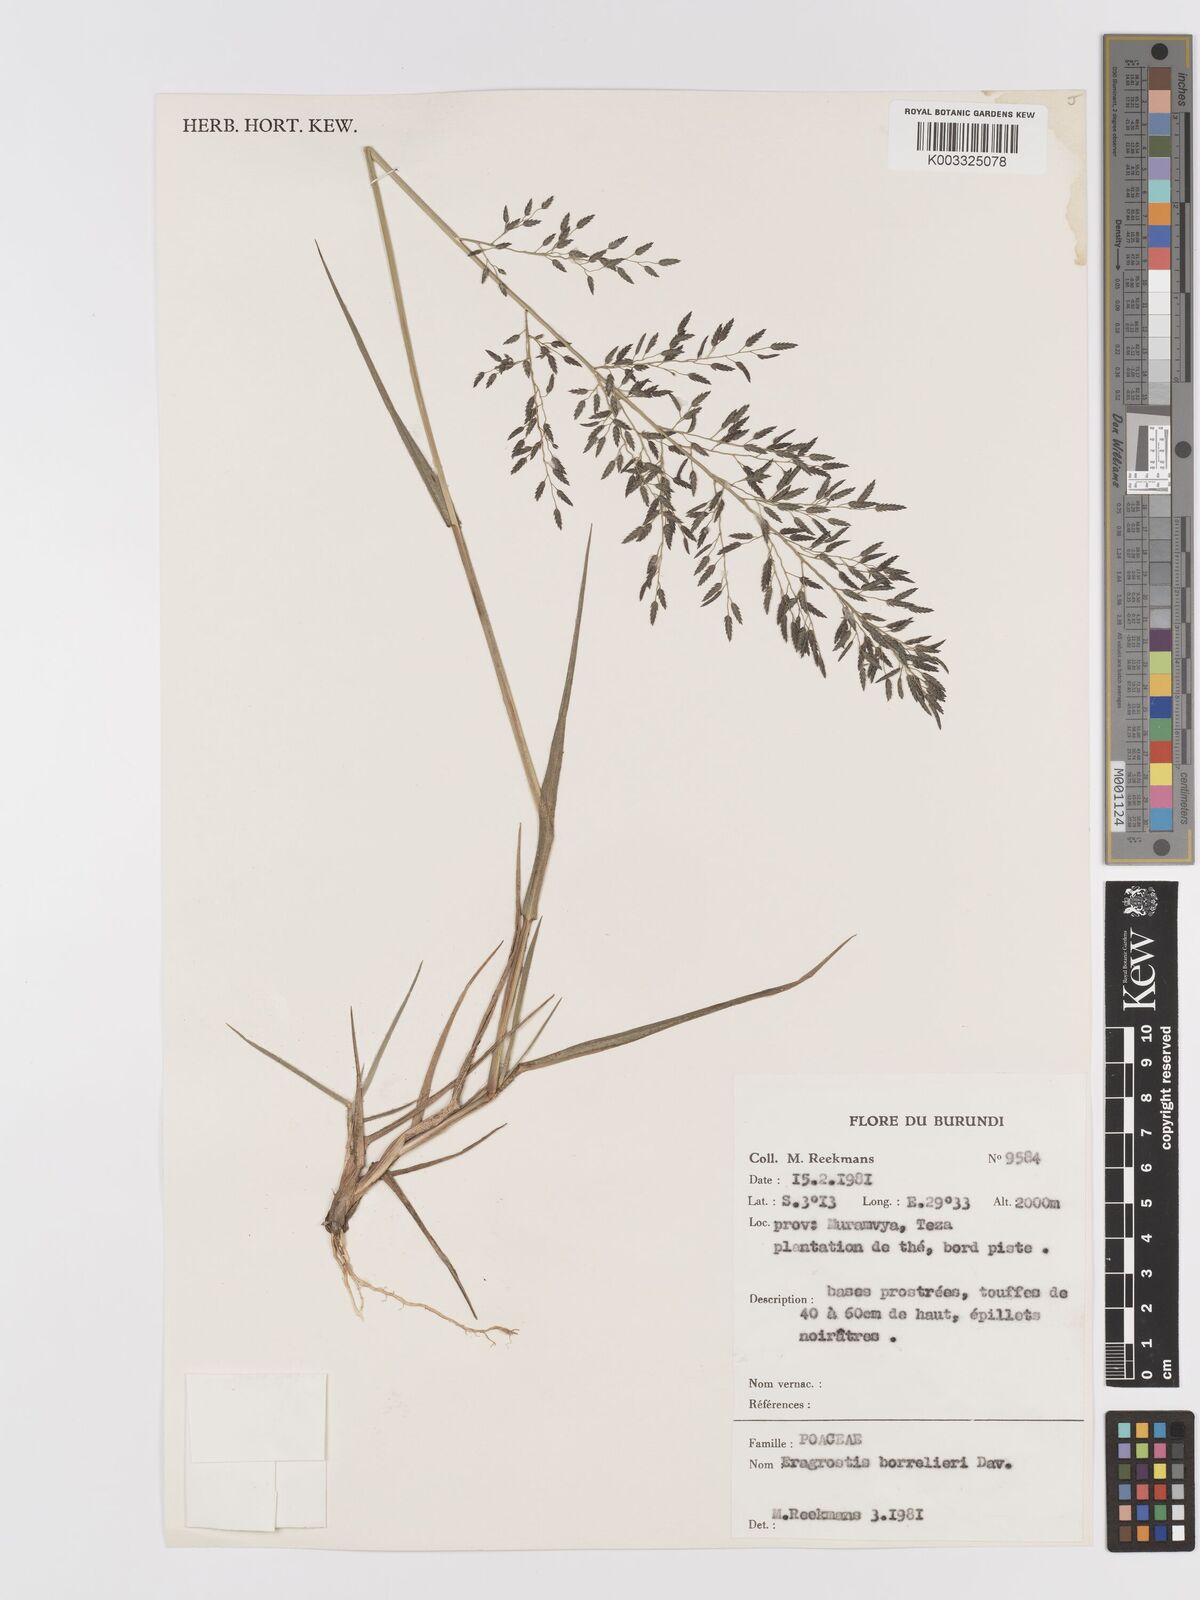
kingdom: Plantae
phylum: Tracheophyta
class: Liliopsida
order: Poales
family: Poaceae
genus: Eragrostis
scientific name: Eragrostis
